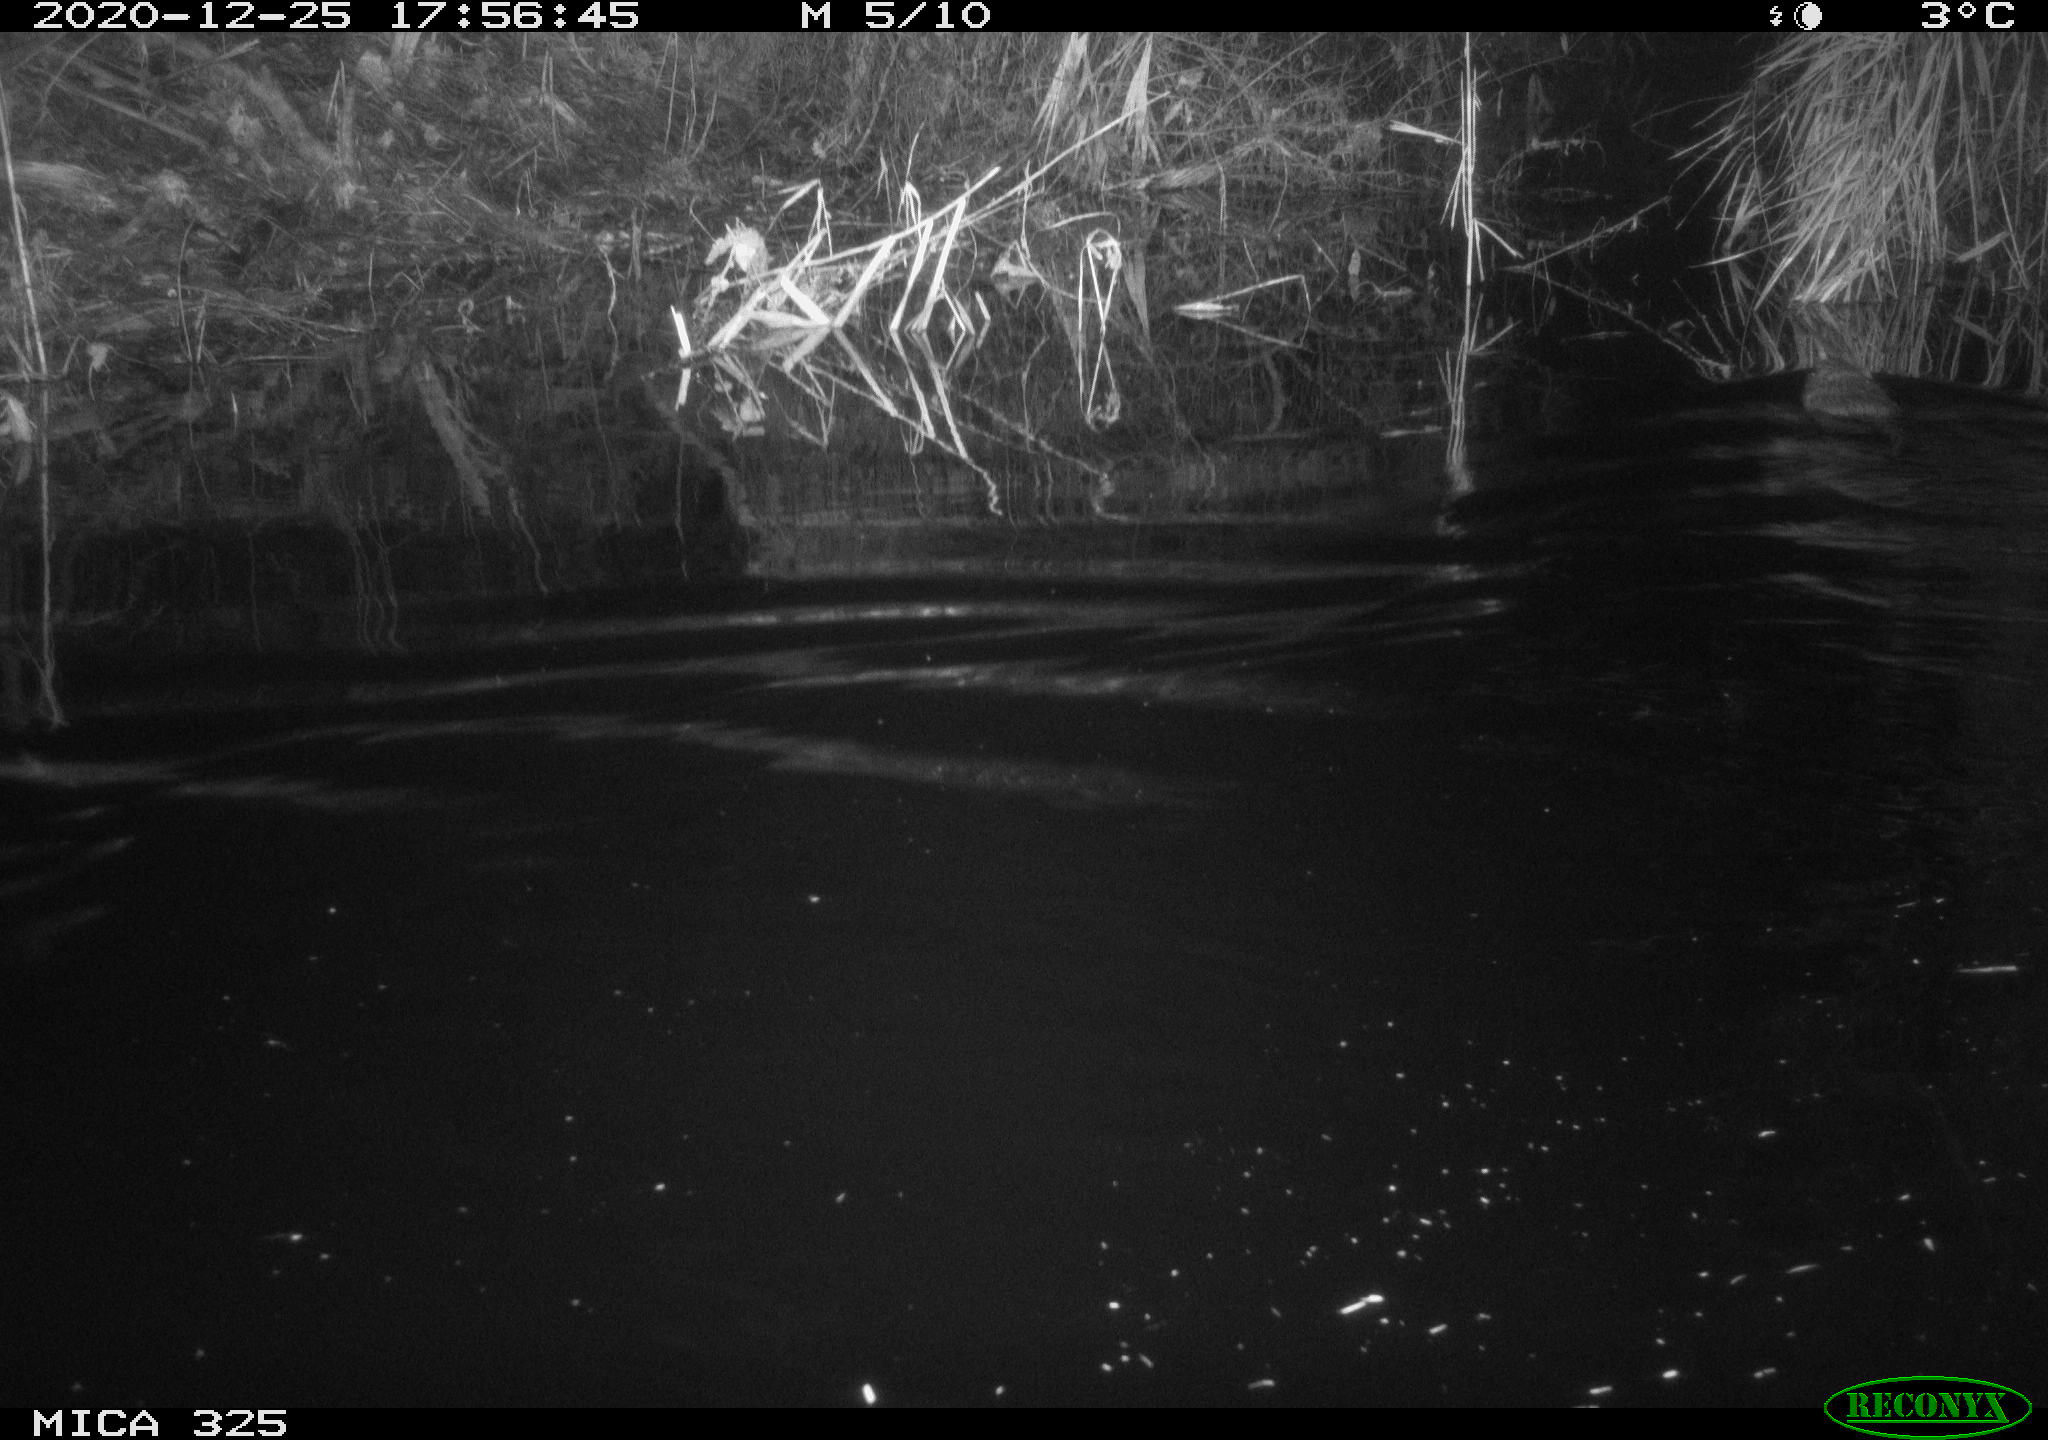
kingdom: Animalia
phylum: Chordata
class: Mammalia
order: Rodentia
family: Cricetidae
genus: Ondatra
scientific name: Ondatra zibethicus
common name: Muskrat
